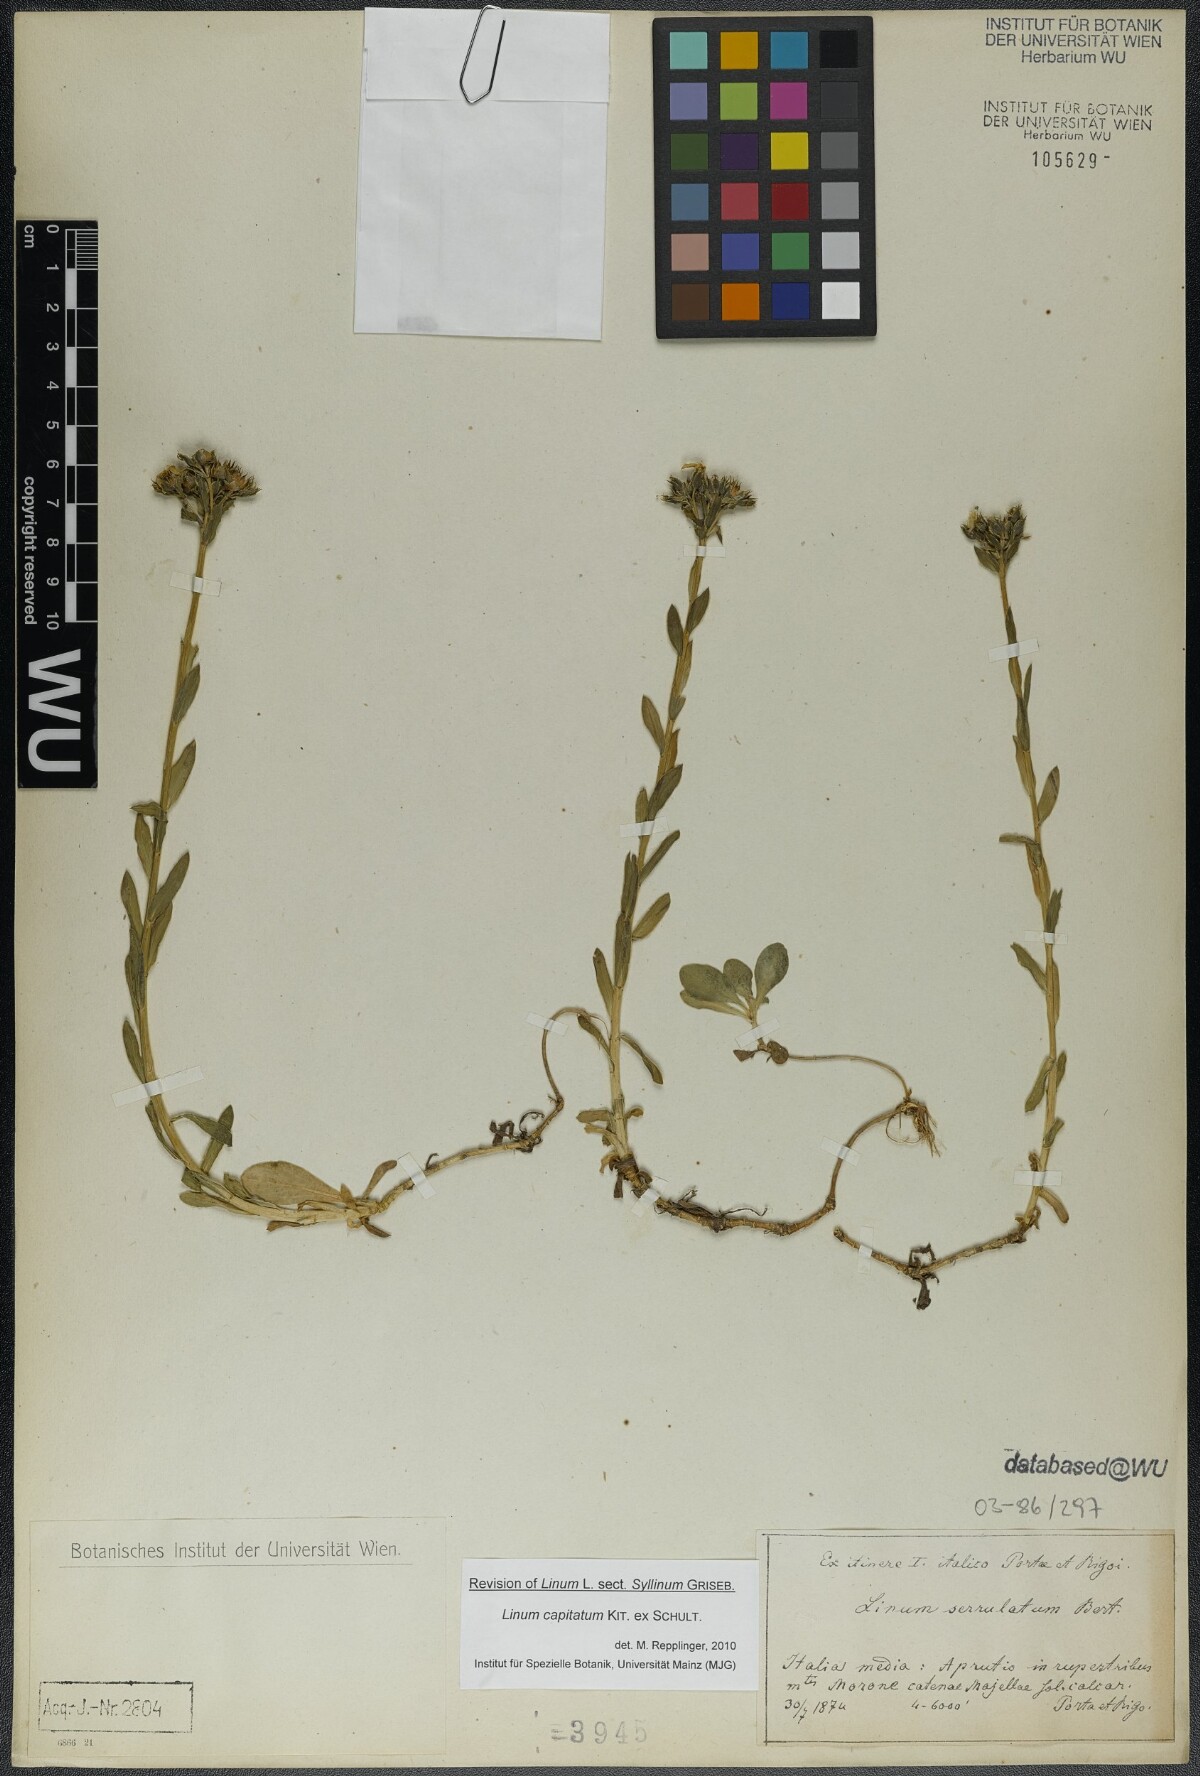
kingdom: Plantae
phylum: Tracheophyta
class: Magnoliopsida
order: Malpighiales
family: Linaceae
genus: Linum
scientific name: Linum capitatum
